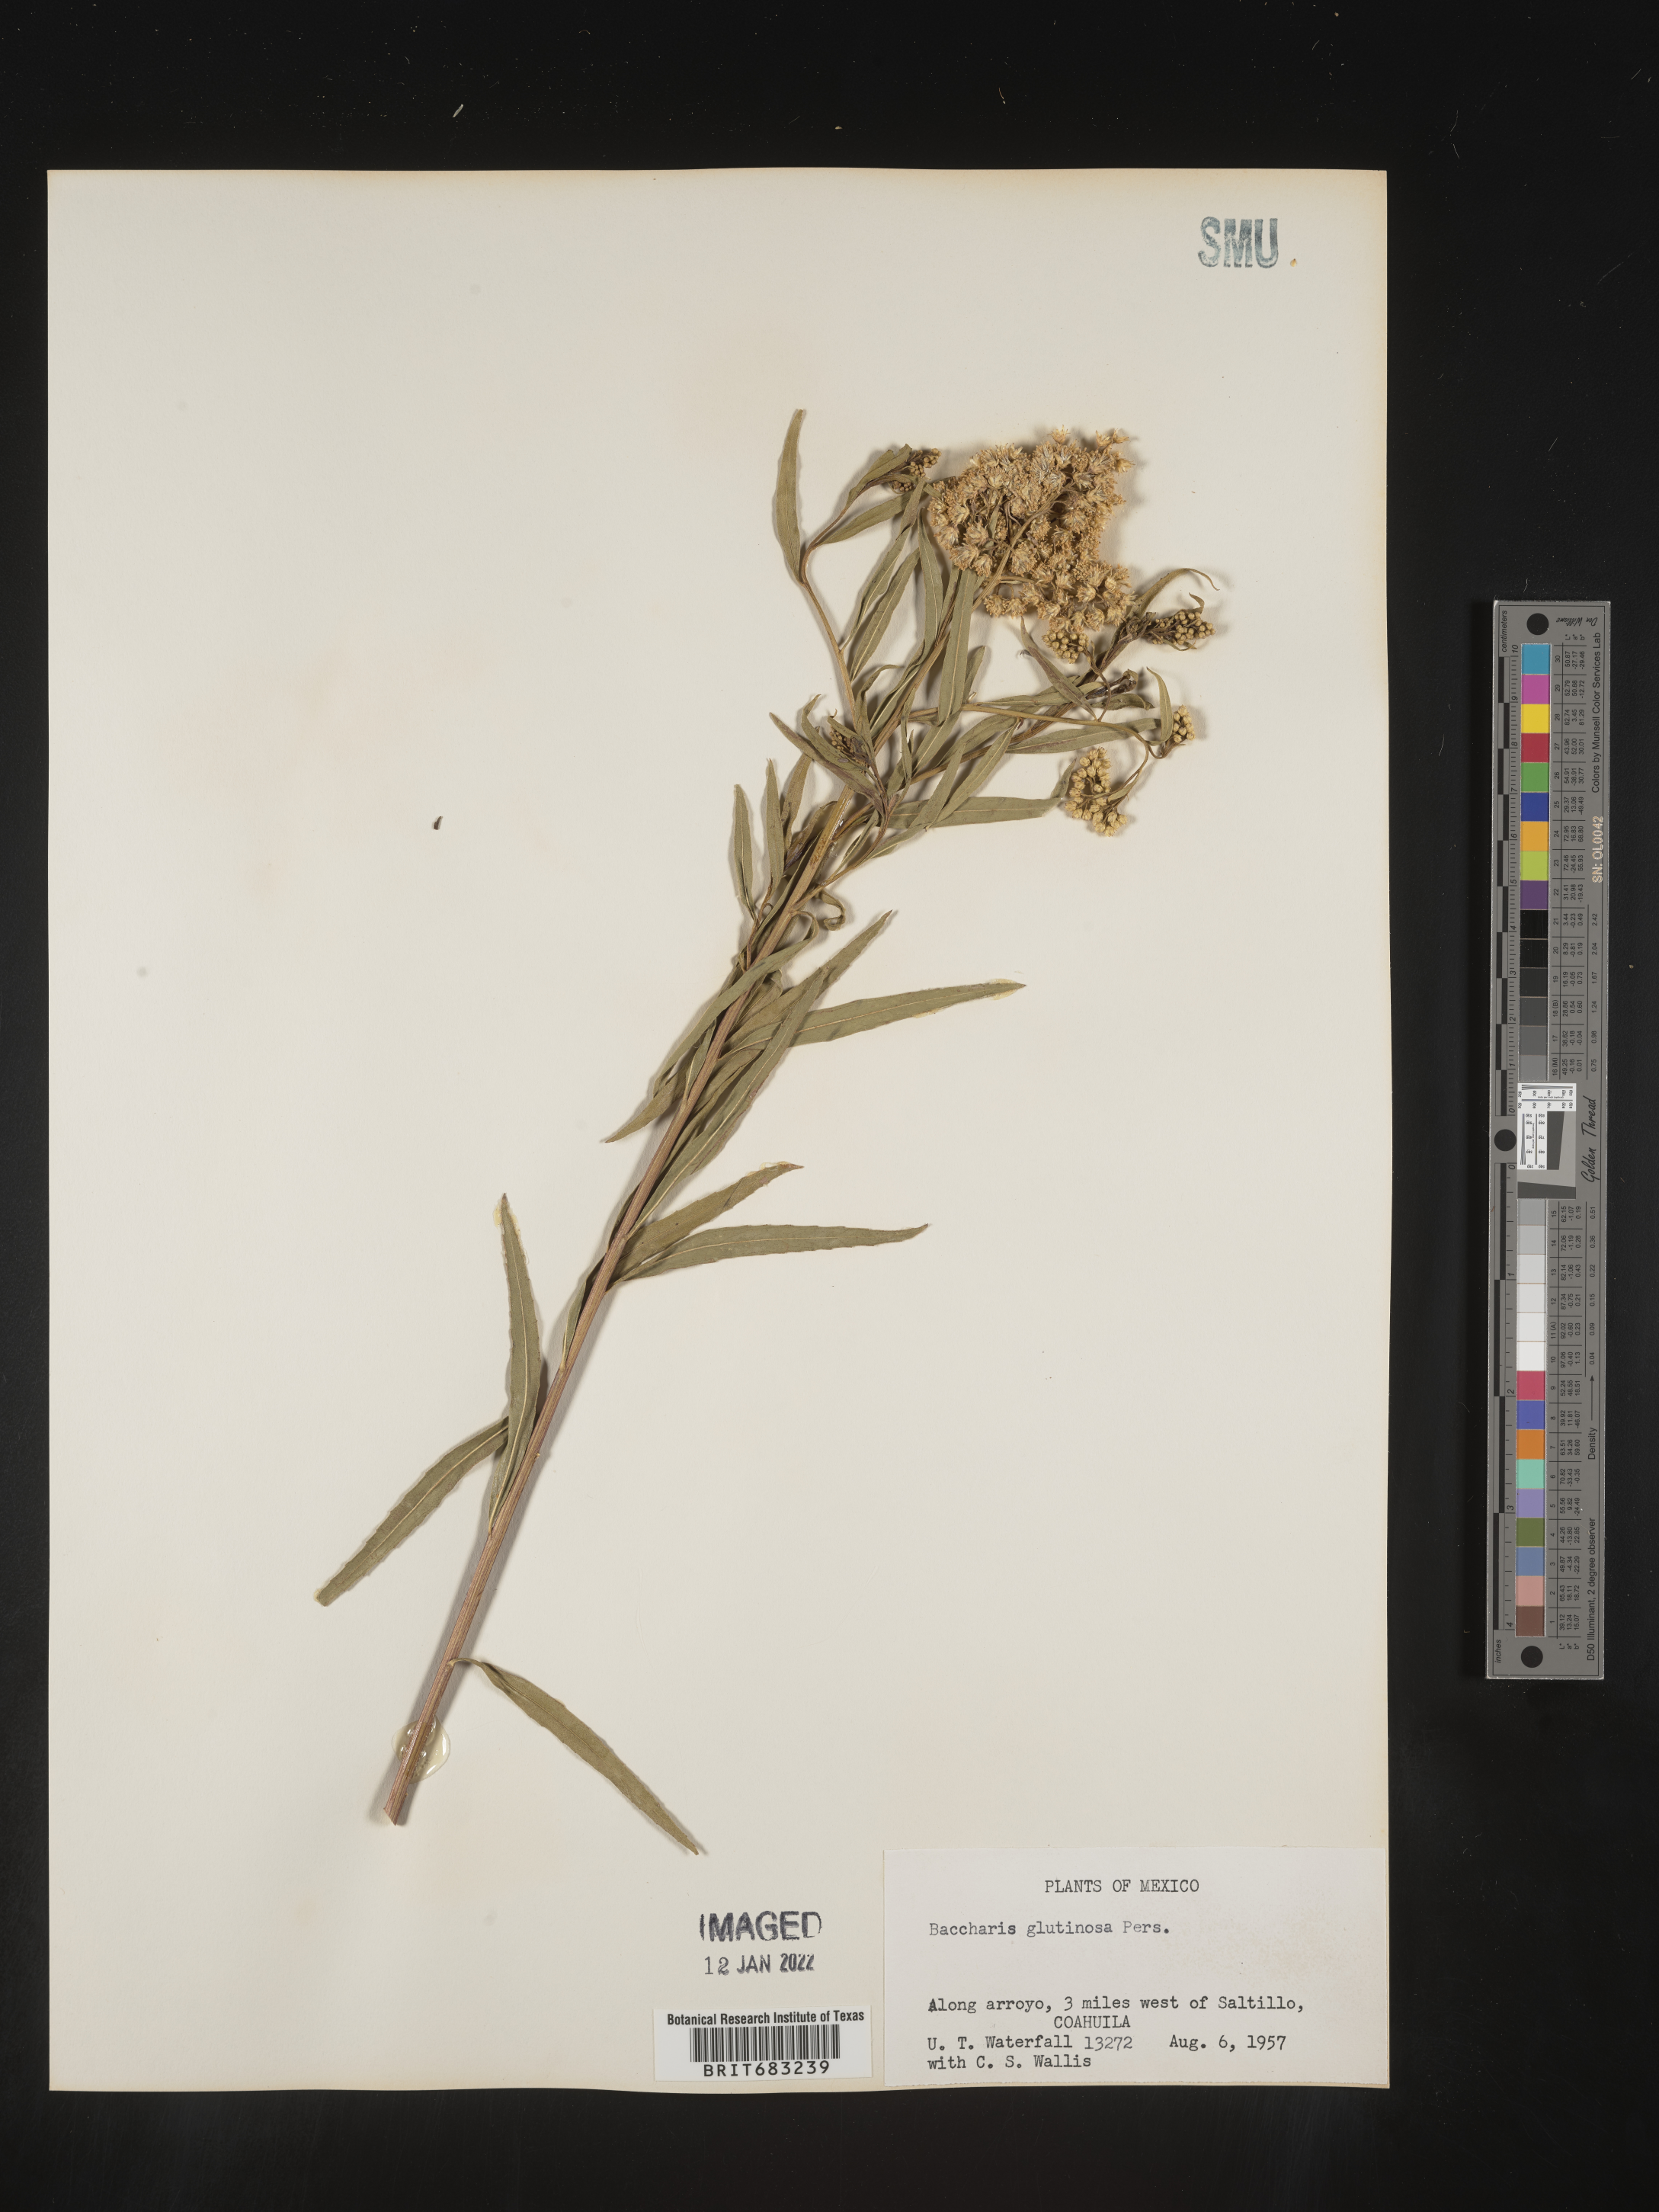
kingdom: Plantae
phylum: Tracheophyta
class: Magnoliopsida
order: Asterales
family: Asteraceae
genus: Baccharis
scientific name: Baccharis salicifolia
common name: Sticky baccharis
